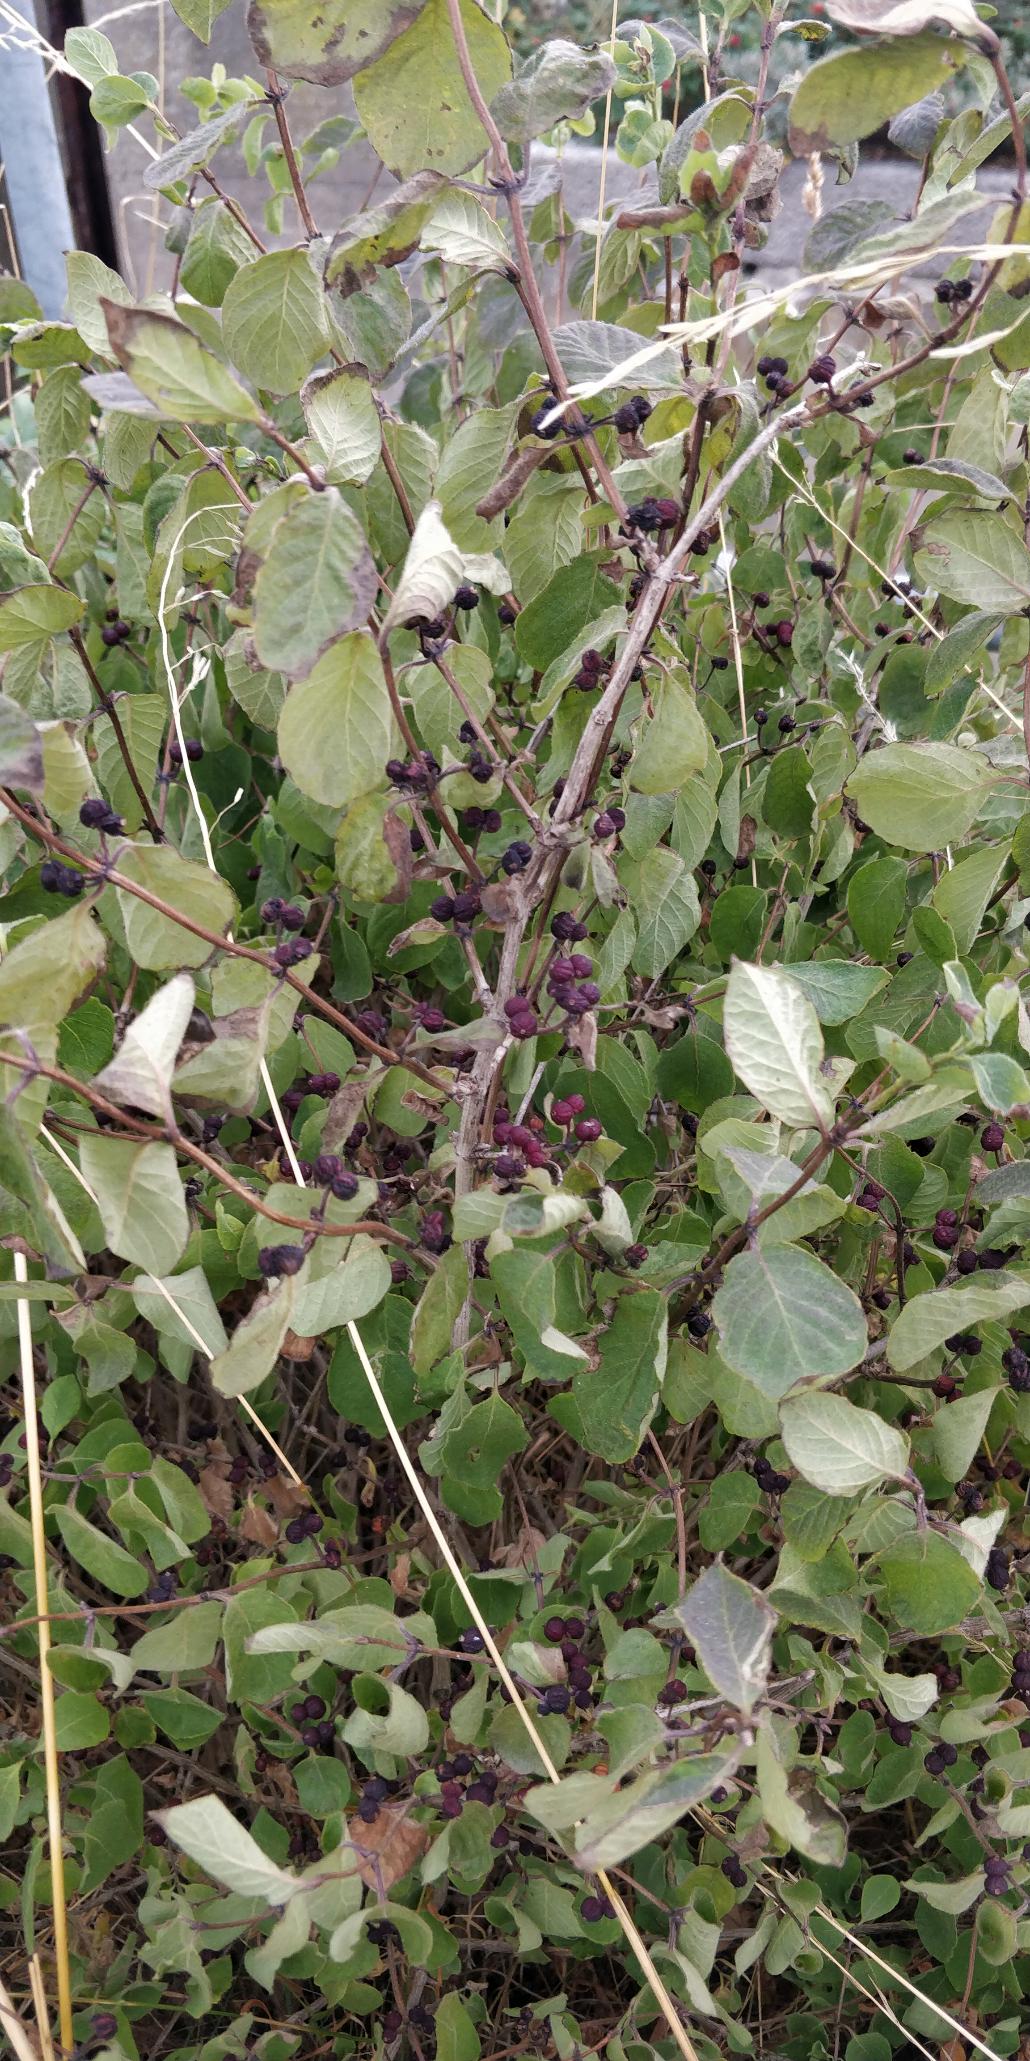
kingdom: Plantae
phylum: Tracheophyta
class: Magnoliopsida
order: Dipsacales
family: Caprifoliaceae
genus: Lonicera
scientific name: Lonicera xylosteum
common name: Dunet gedeblad
